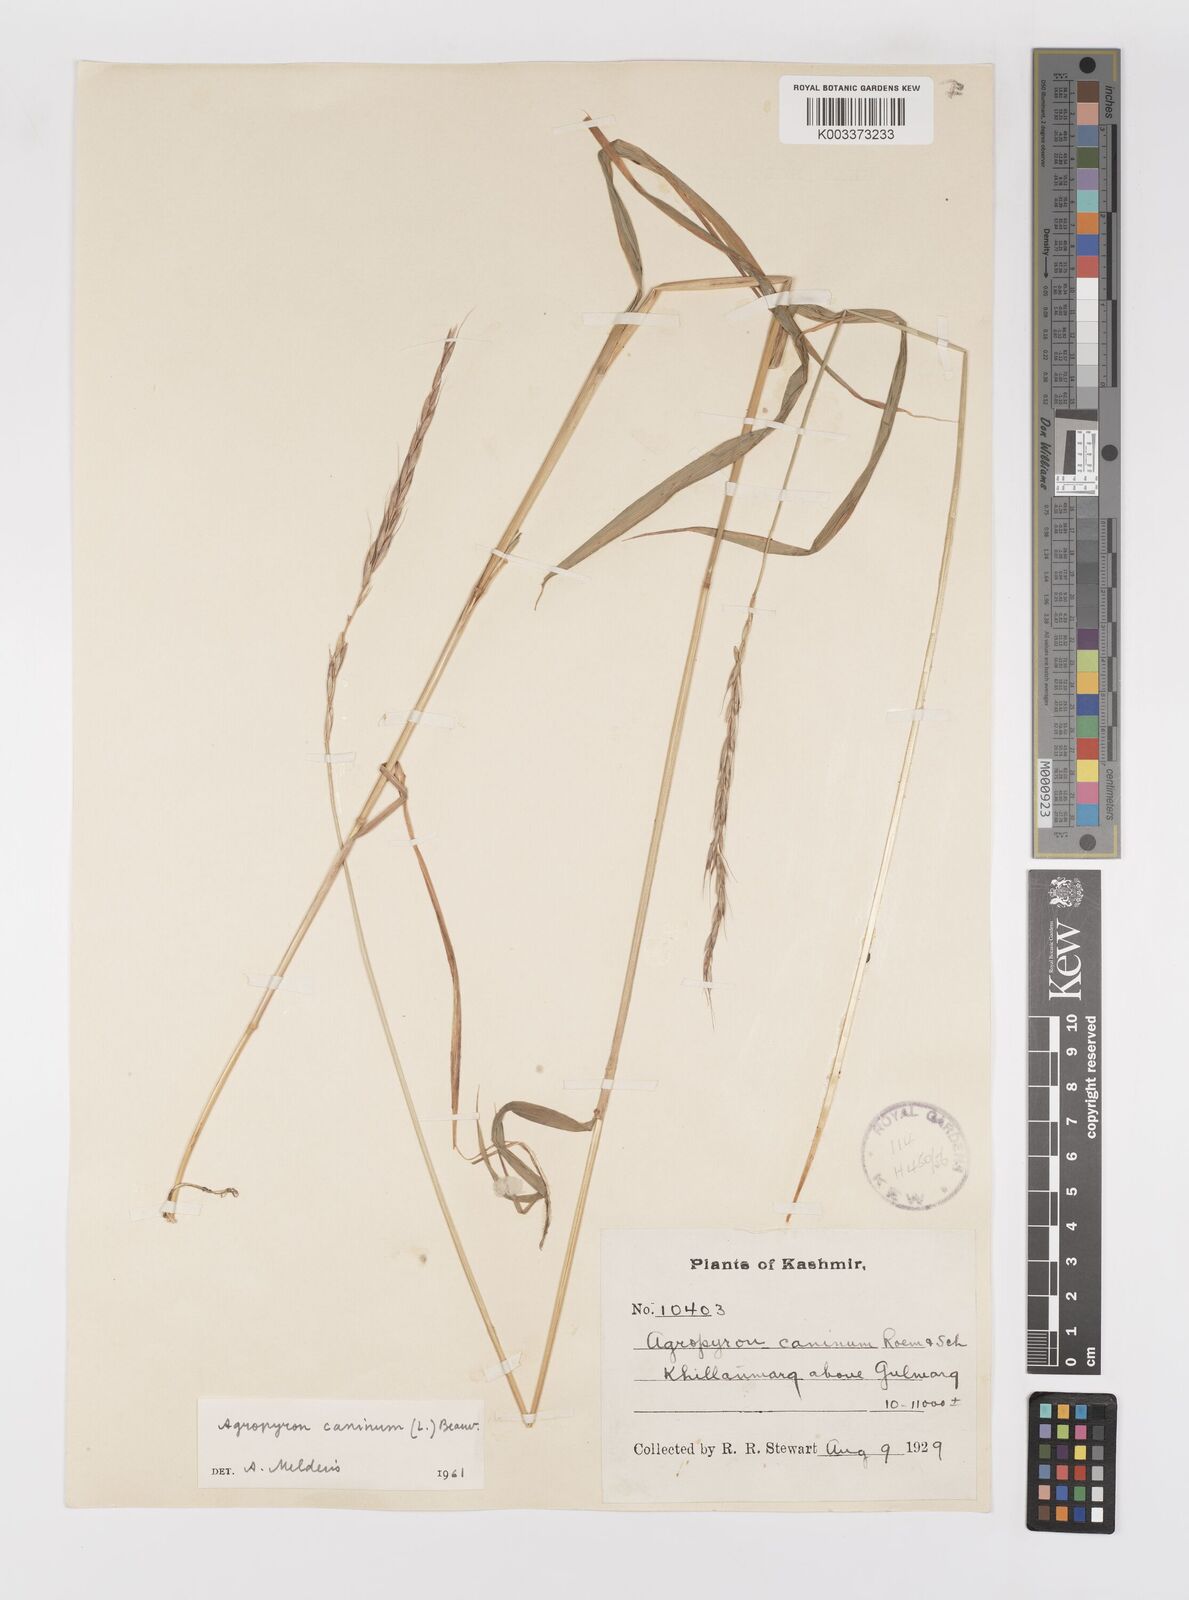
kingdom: Plantae
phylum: Tracheophyta
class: Liliopsida
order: Poales
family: Poaceae
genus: Elymus
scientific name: Elymus caninus
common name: Bearded couch
